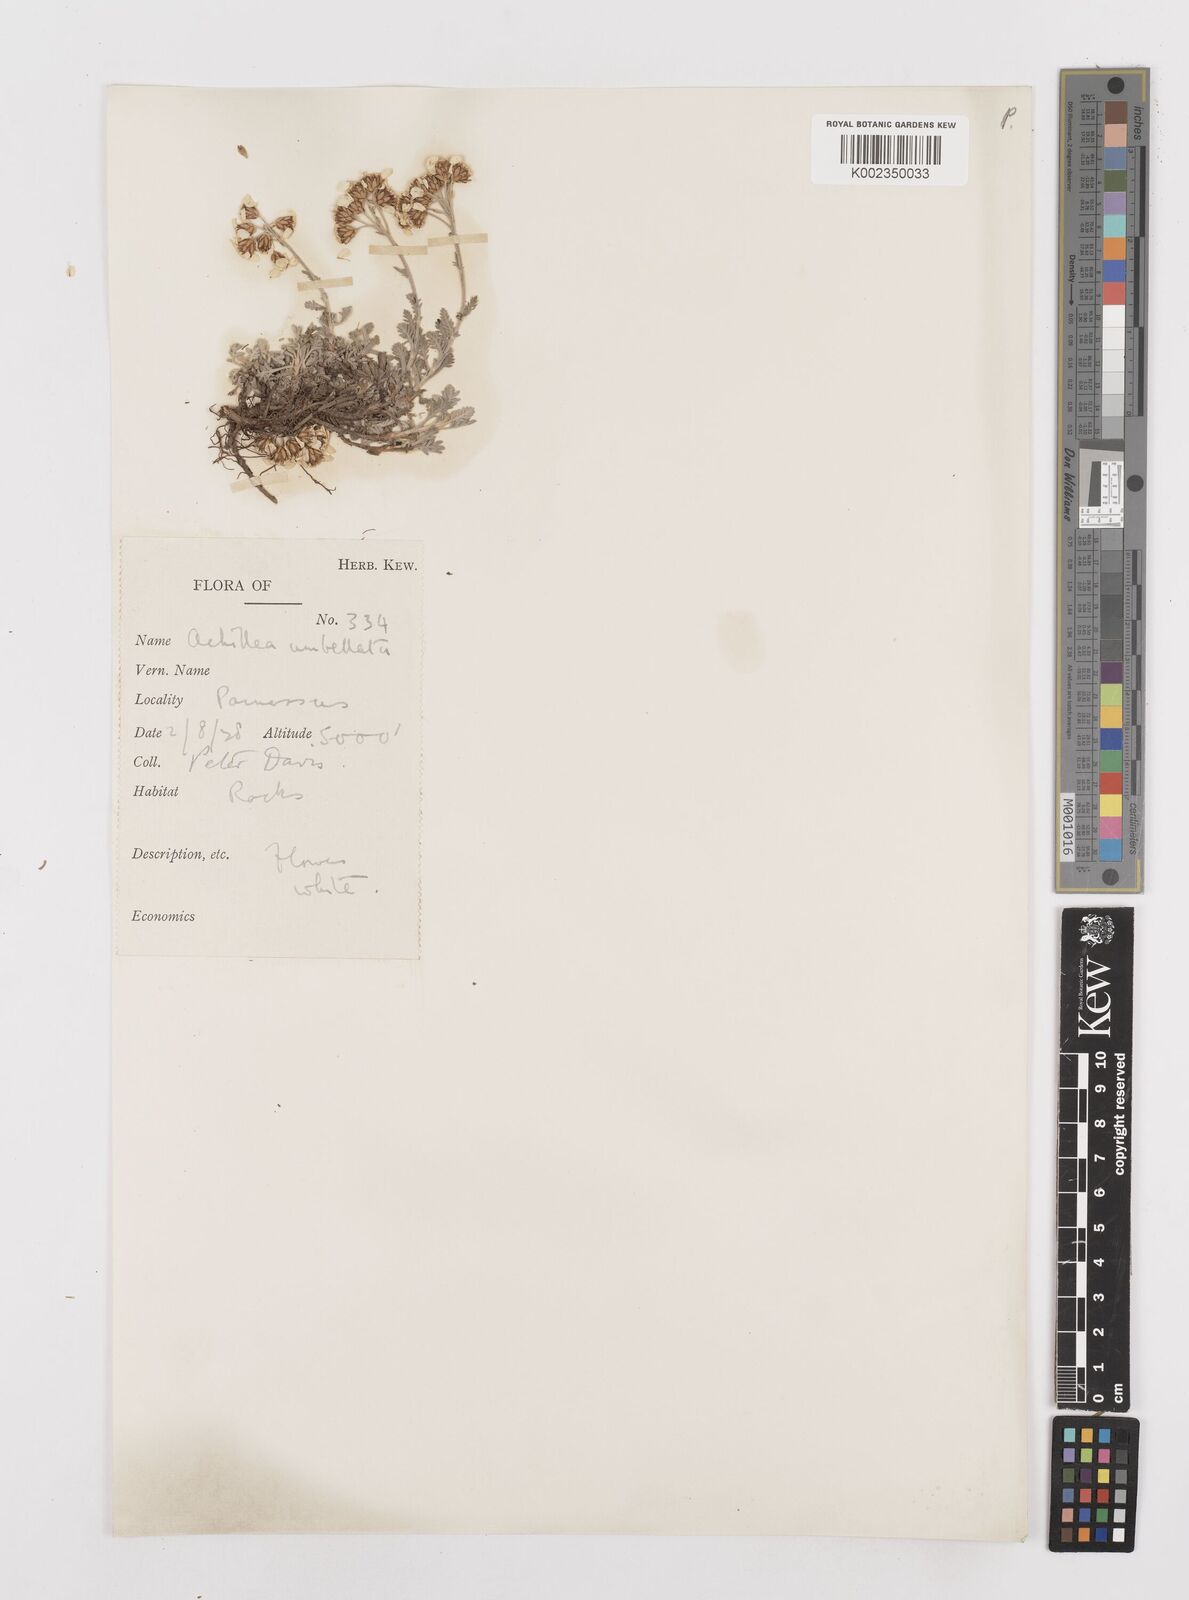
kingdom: Plantae
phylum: Tracheophyta
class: Magnoliopsida
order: Asterales
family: Asteraceae
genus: Achillea
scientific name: Achillea umbellata
